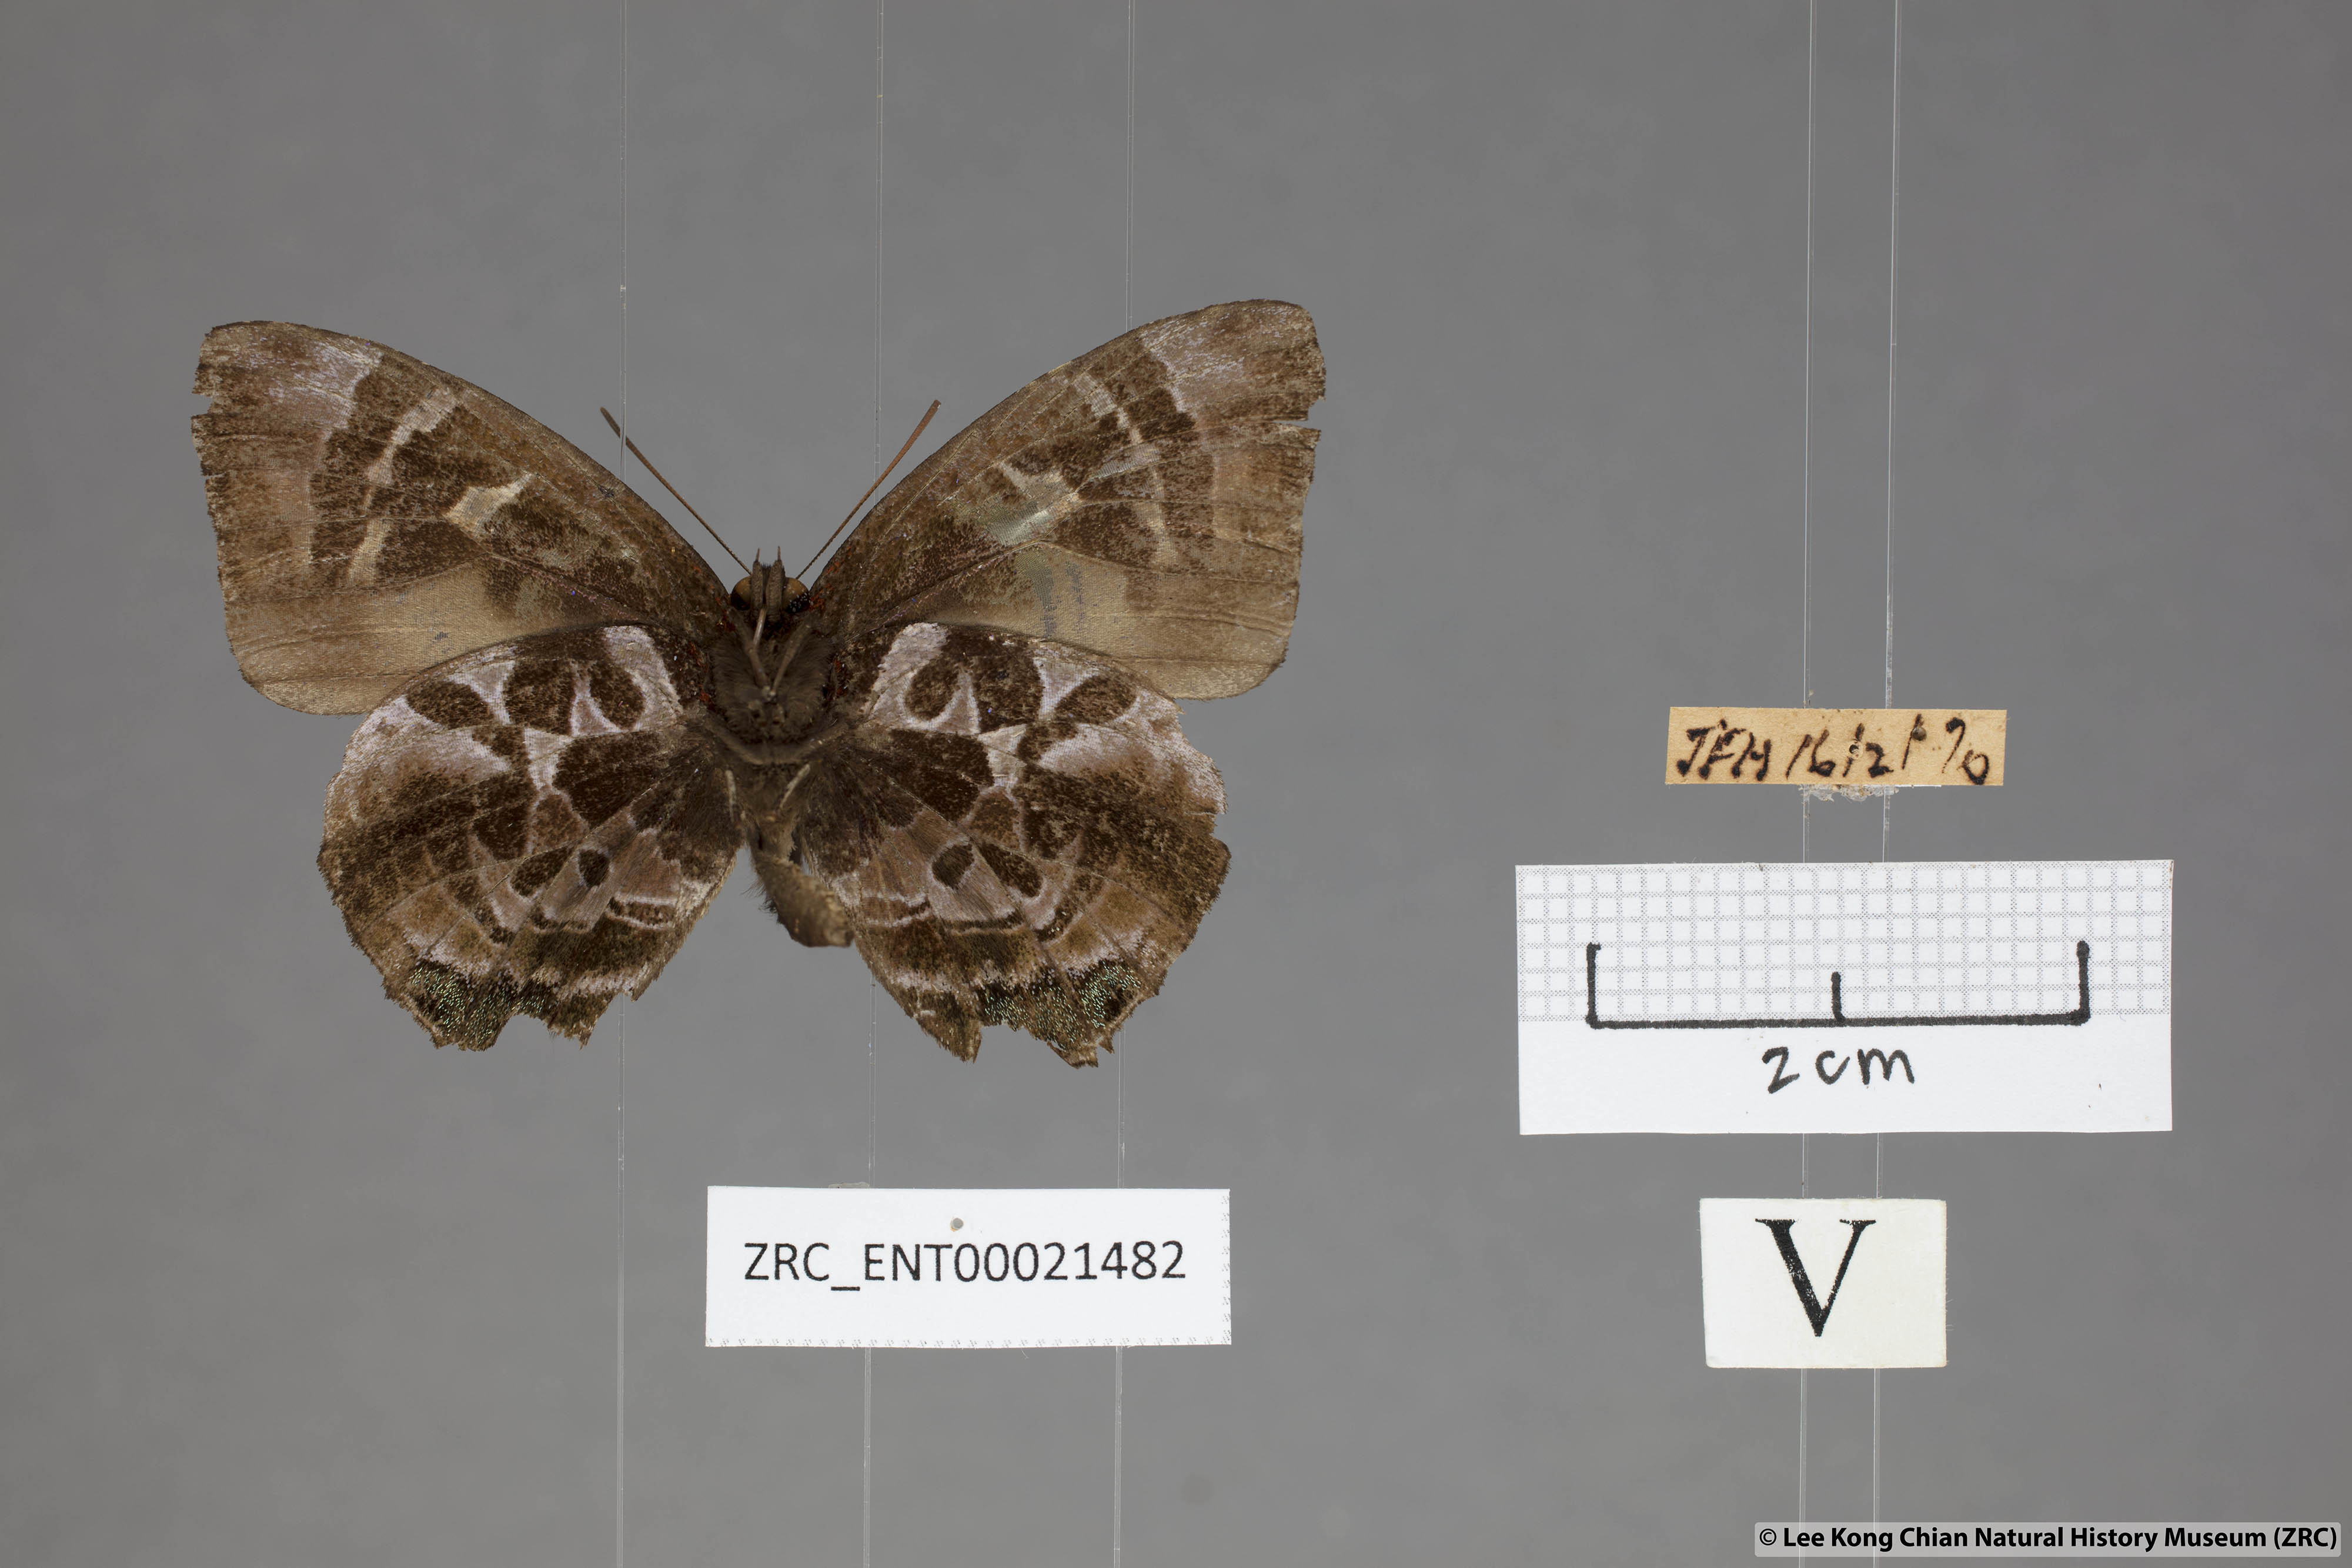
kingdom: Animalia
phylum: Arthropoda
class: Insecta
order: Lepidoptera
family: Lycaenidae
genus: Flos
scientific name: Flos
